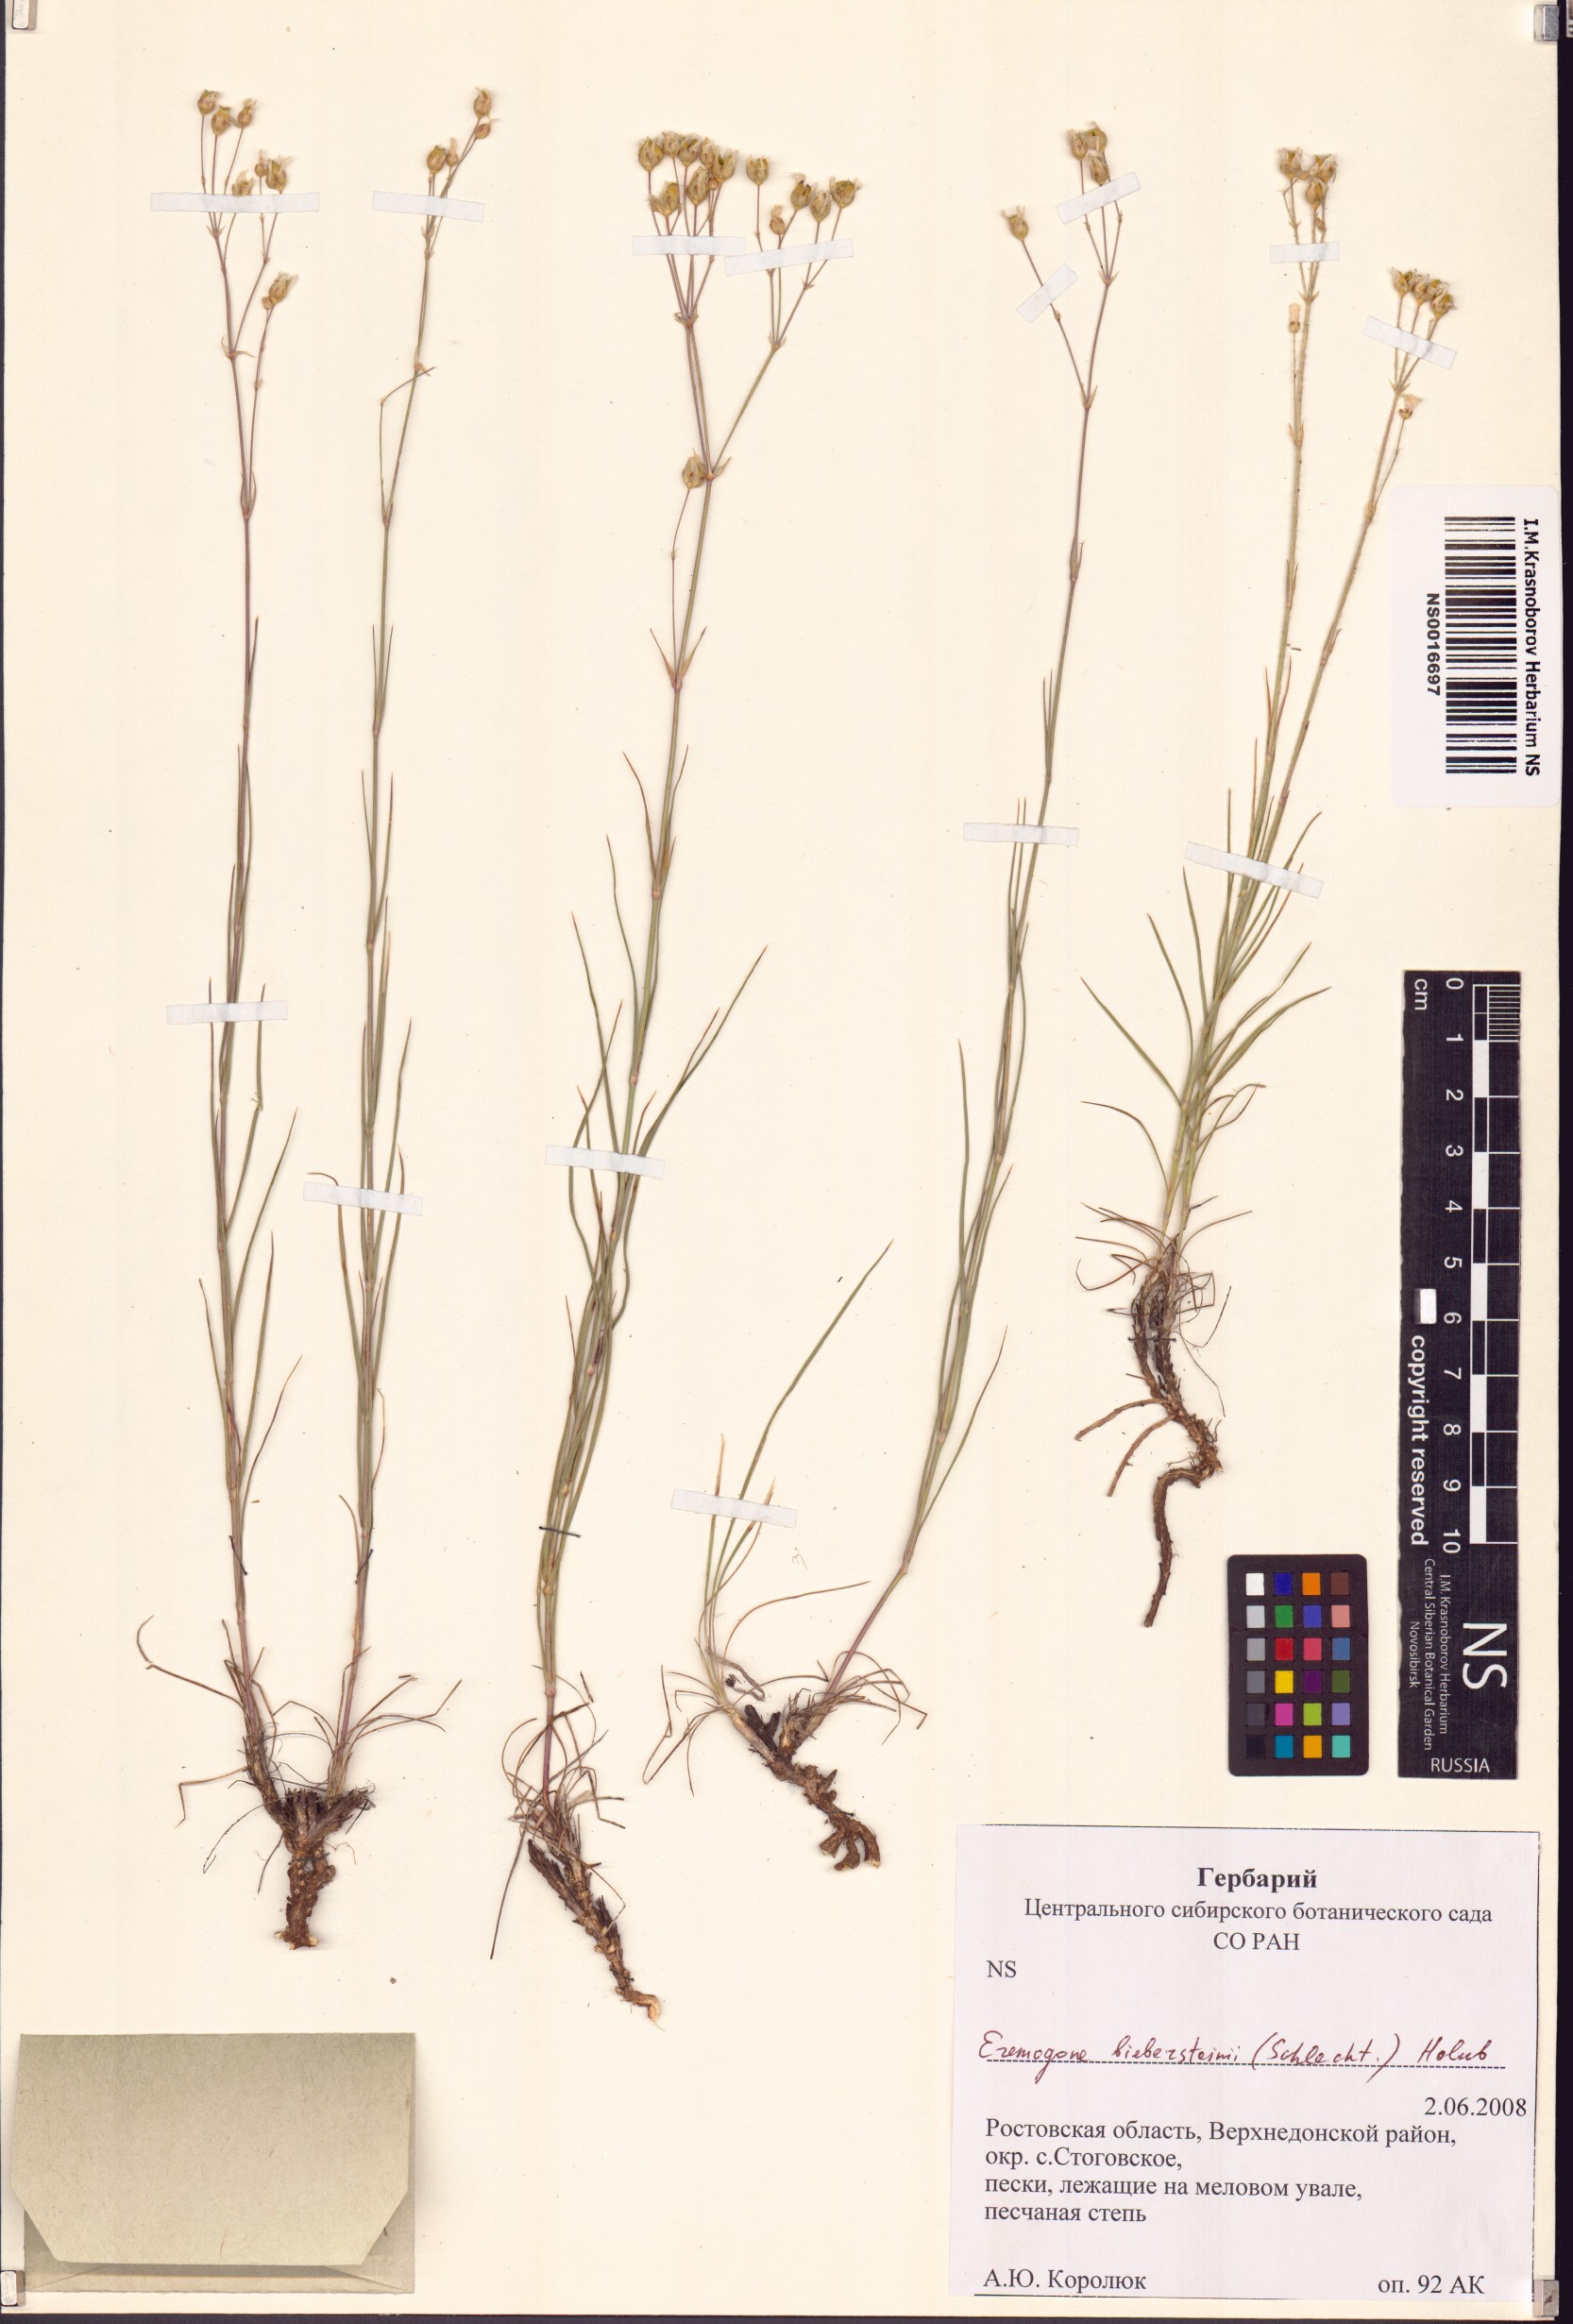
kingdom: Plantae
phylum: Tracheophyta
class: Magnoliopsida
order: Caryophyllales
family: Caryophyllaceae
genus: Eremogone
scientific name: Eremogone biebersteinii
